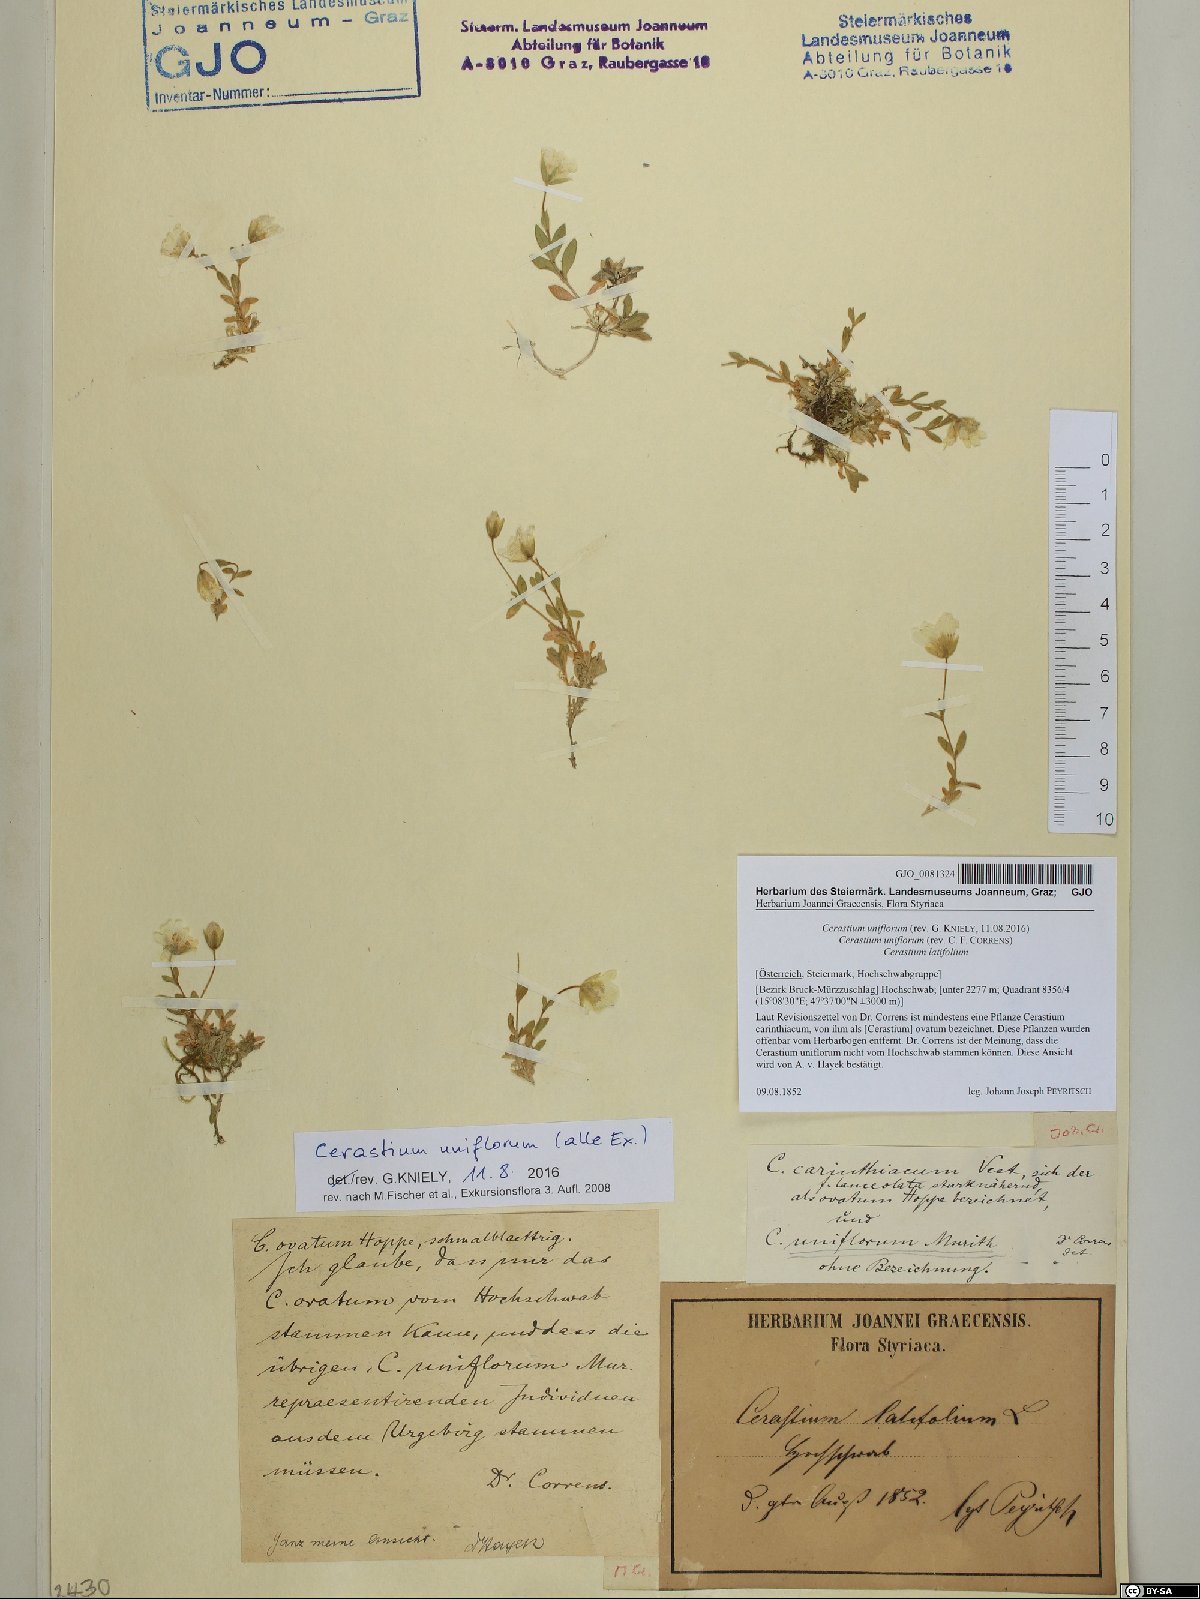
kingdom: Plantae
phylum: Tracheophyta
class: Magnoliopsida
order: Caryophyllales
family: Caryophyllaceae
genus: Cerastium
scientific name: Cerastium uniflorum
